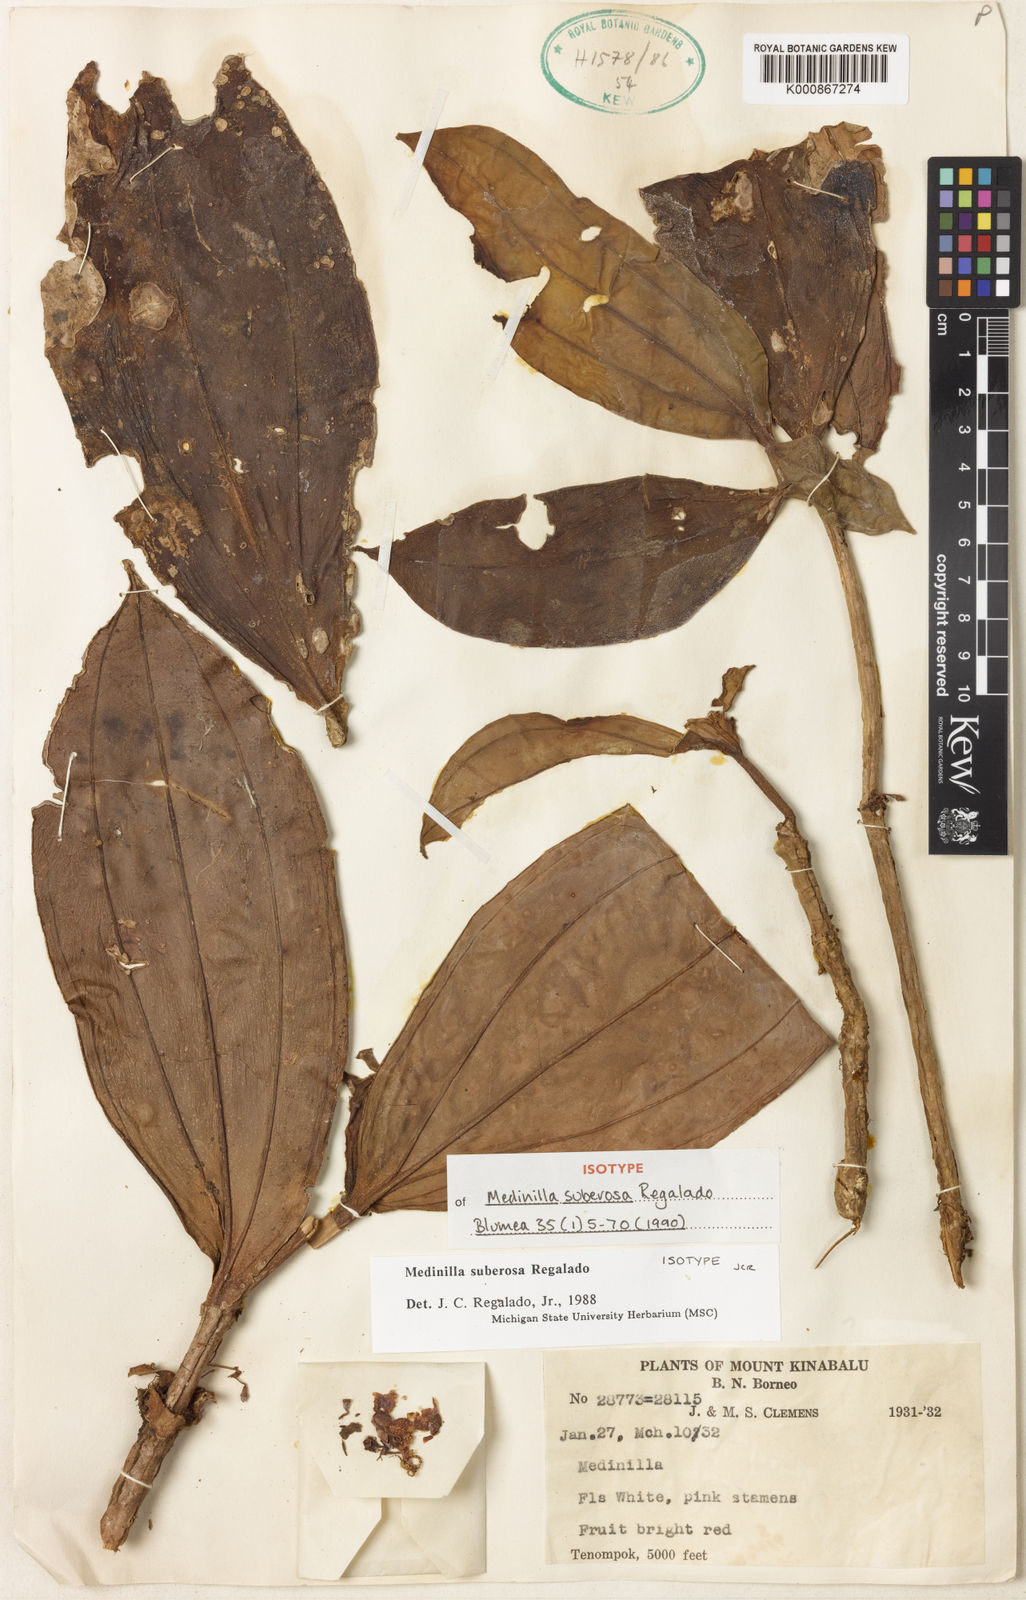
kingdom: Plantae
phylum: Tracheophyta
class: Magnoliopsida
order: Myrtales
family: Melastomataceae
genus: Medinilla
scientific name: Medinilla suberosa
